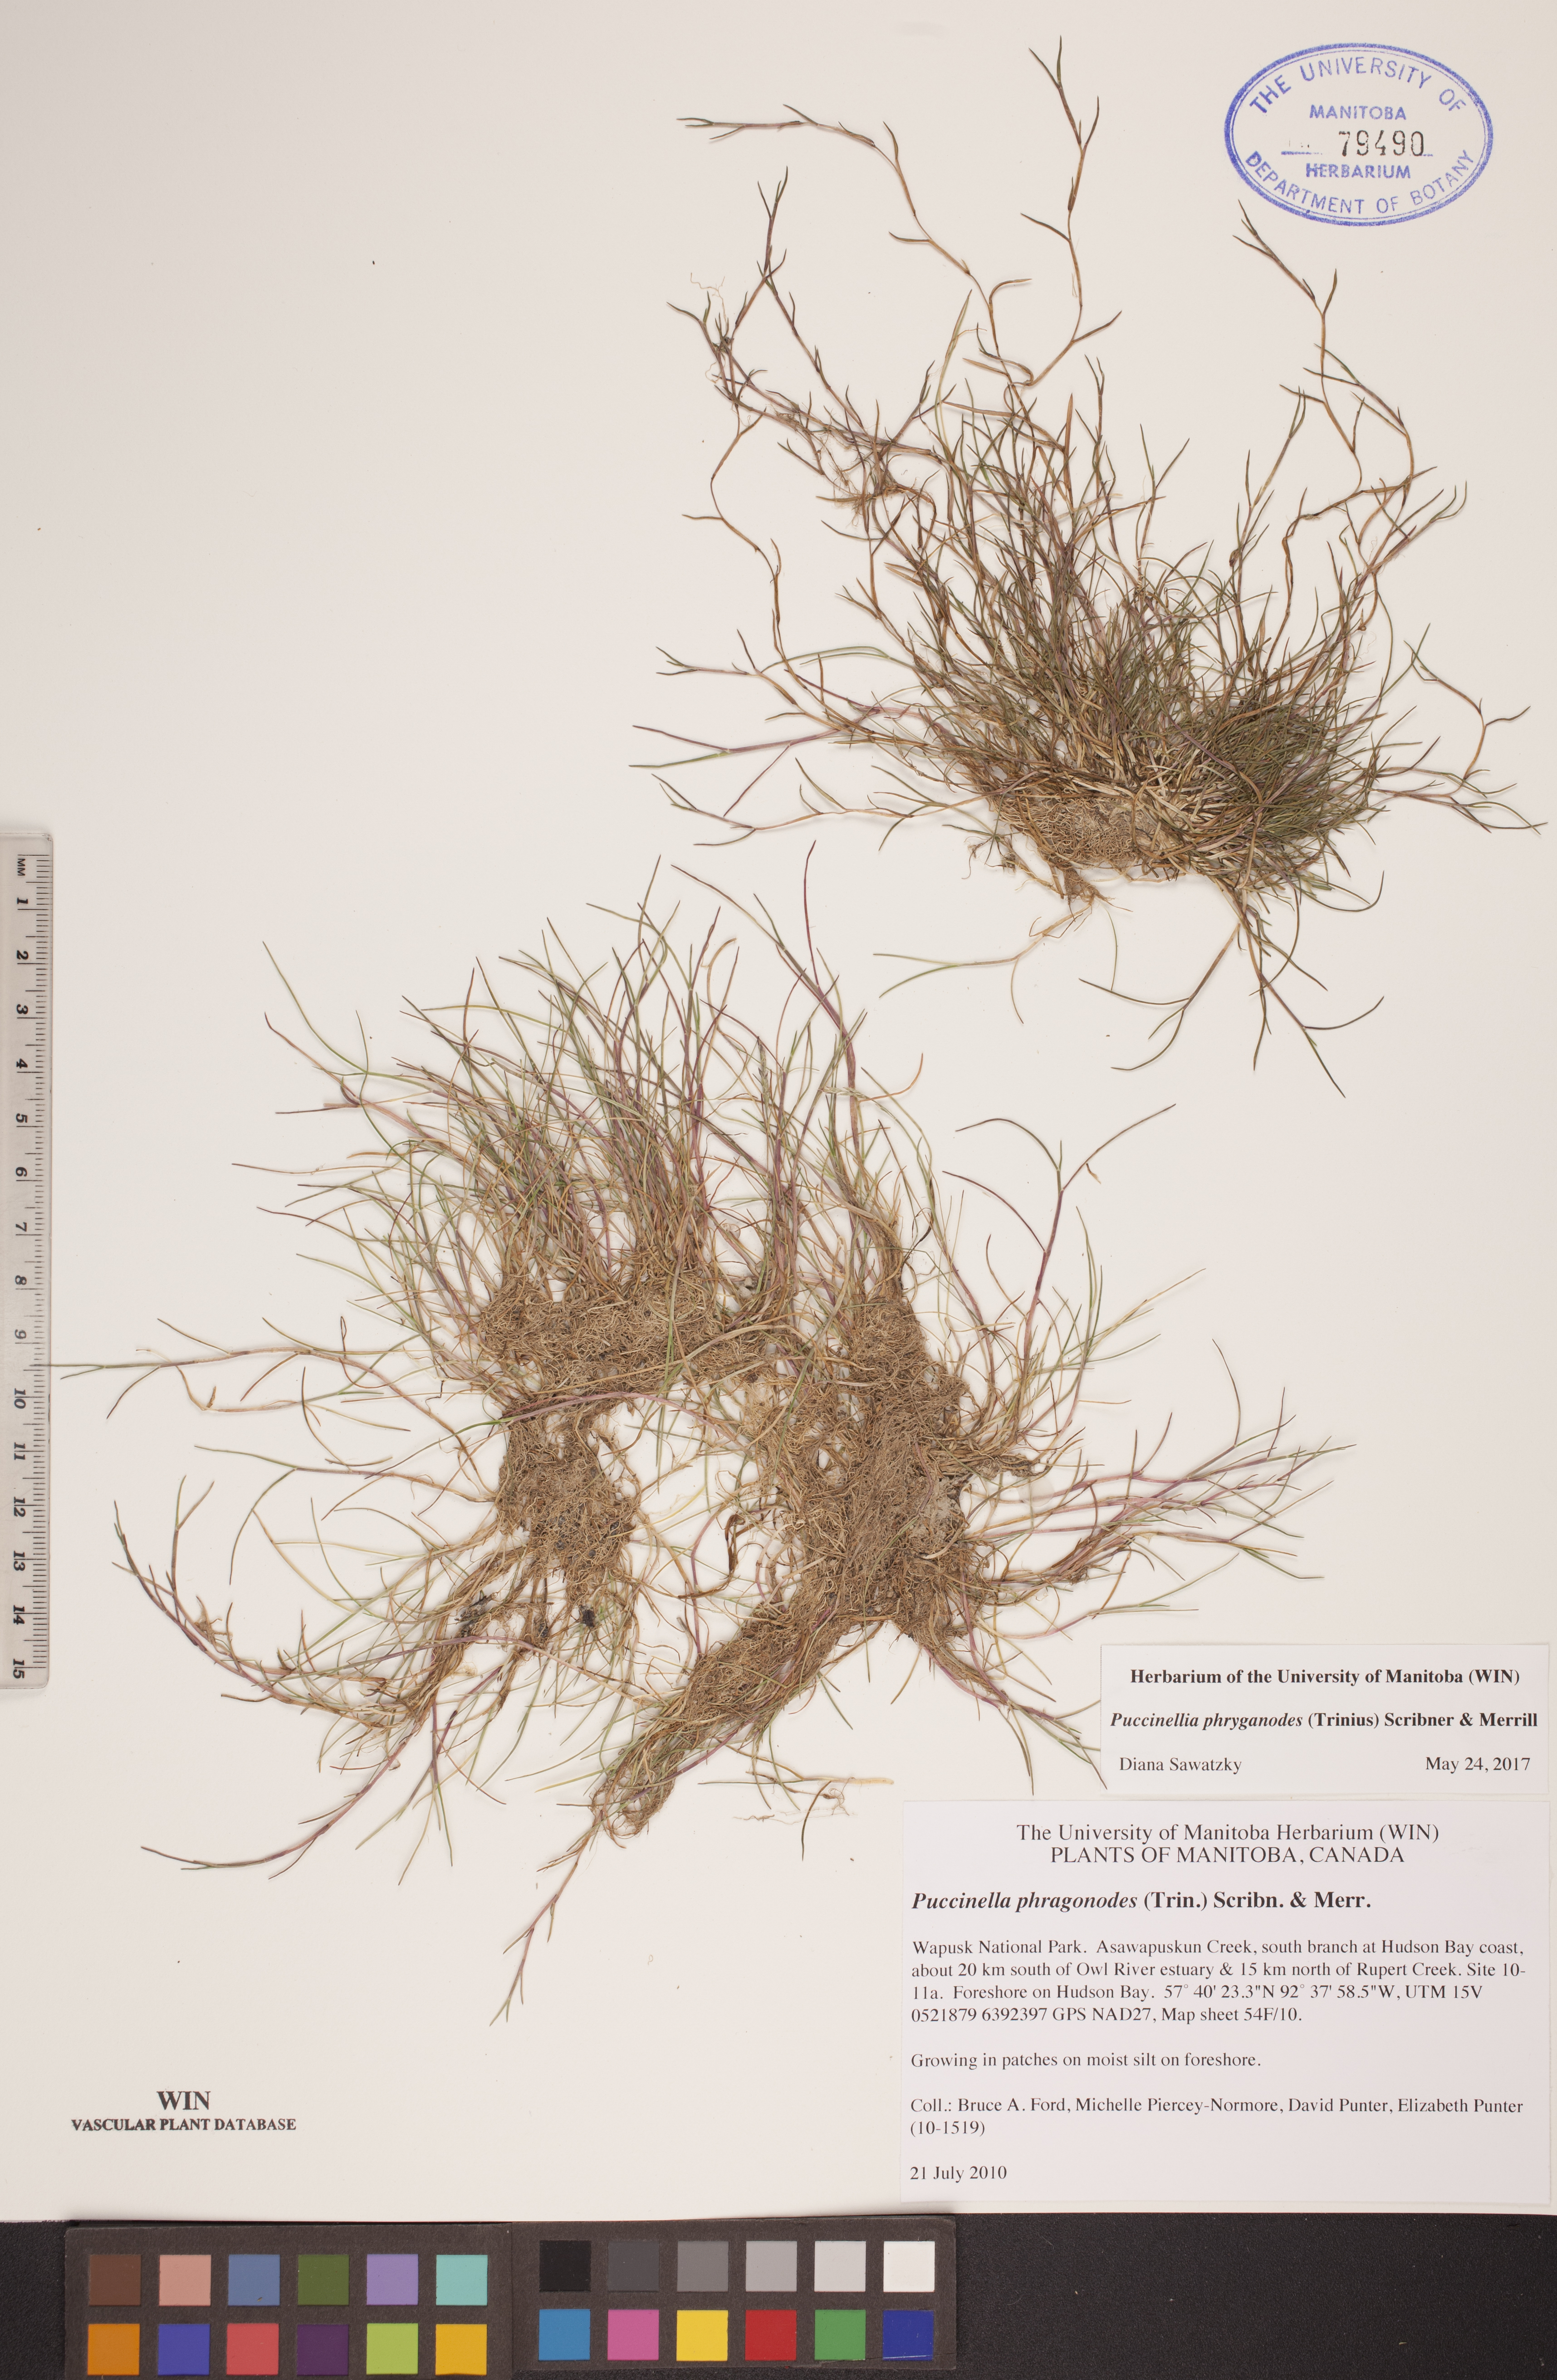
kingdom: Plantae
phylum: Tracheophyta
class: Liliopsida
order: Poales
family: Poaceae
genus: Puccinellia
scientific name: Puccinellia phryganodes
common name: Creeping alkaligrass
